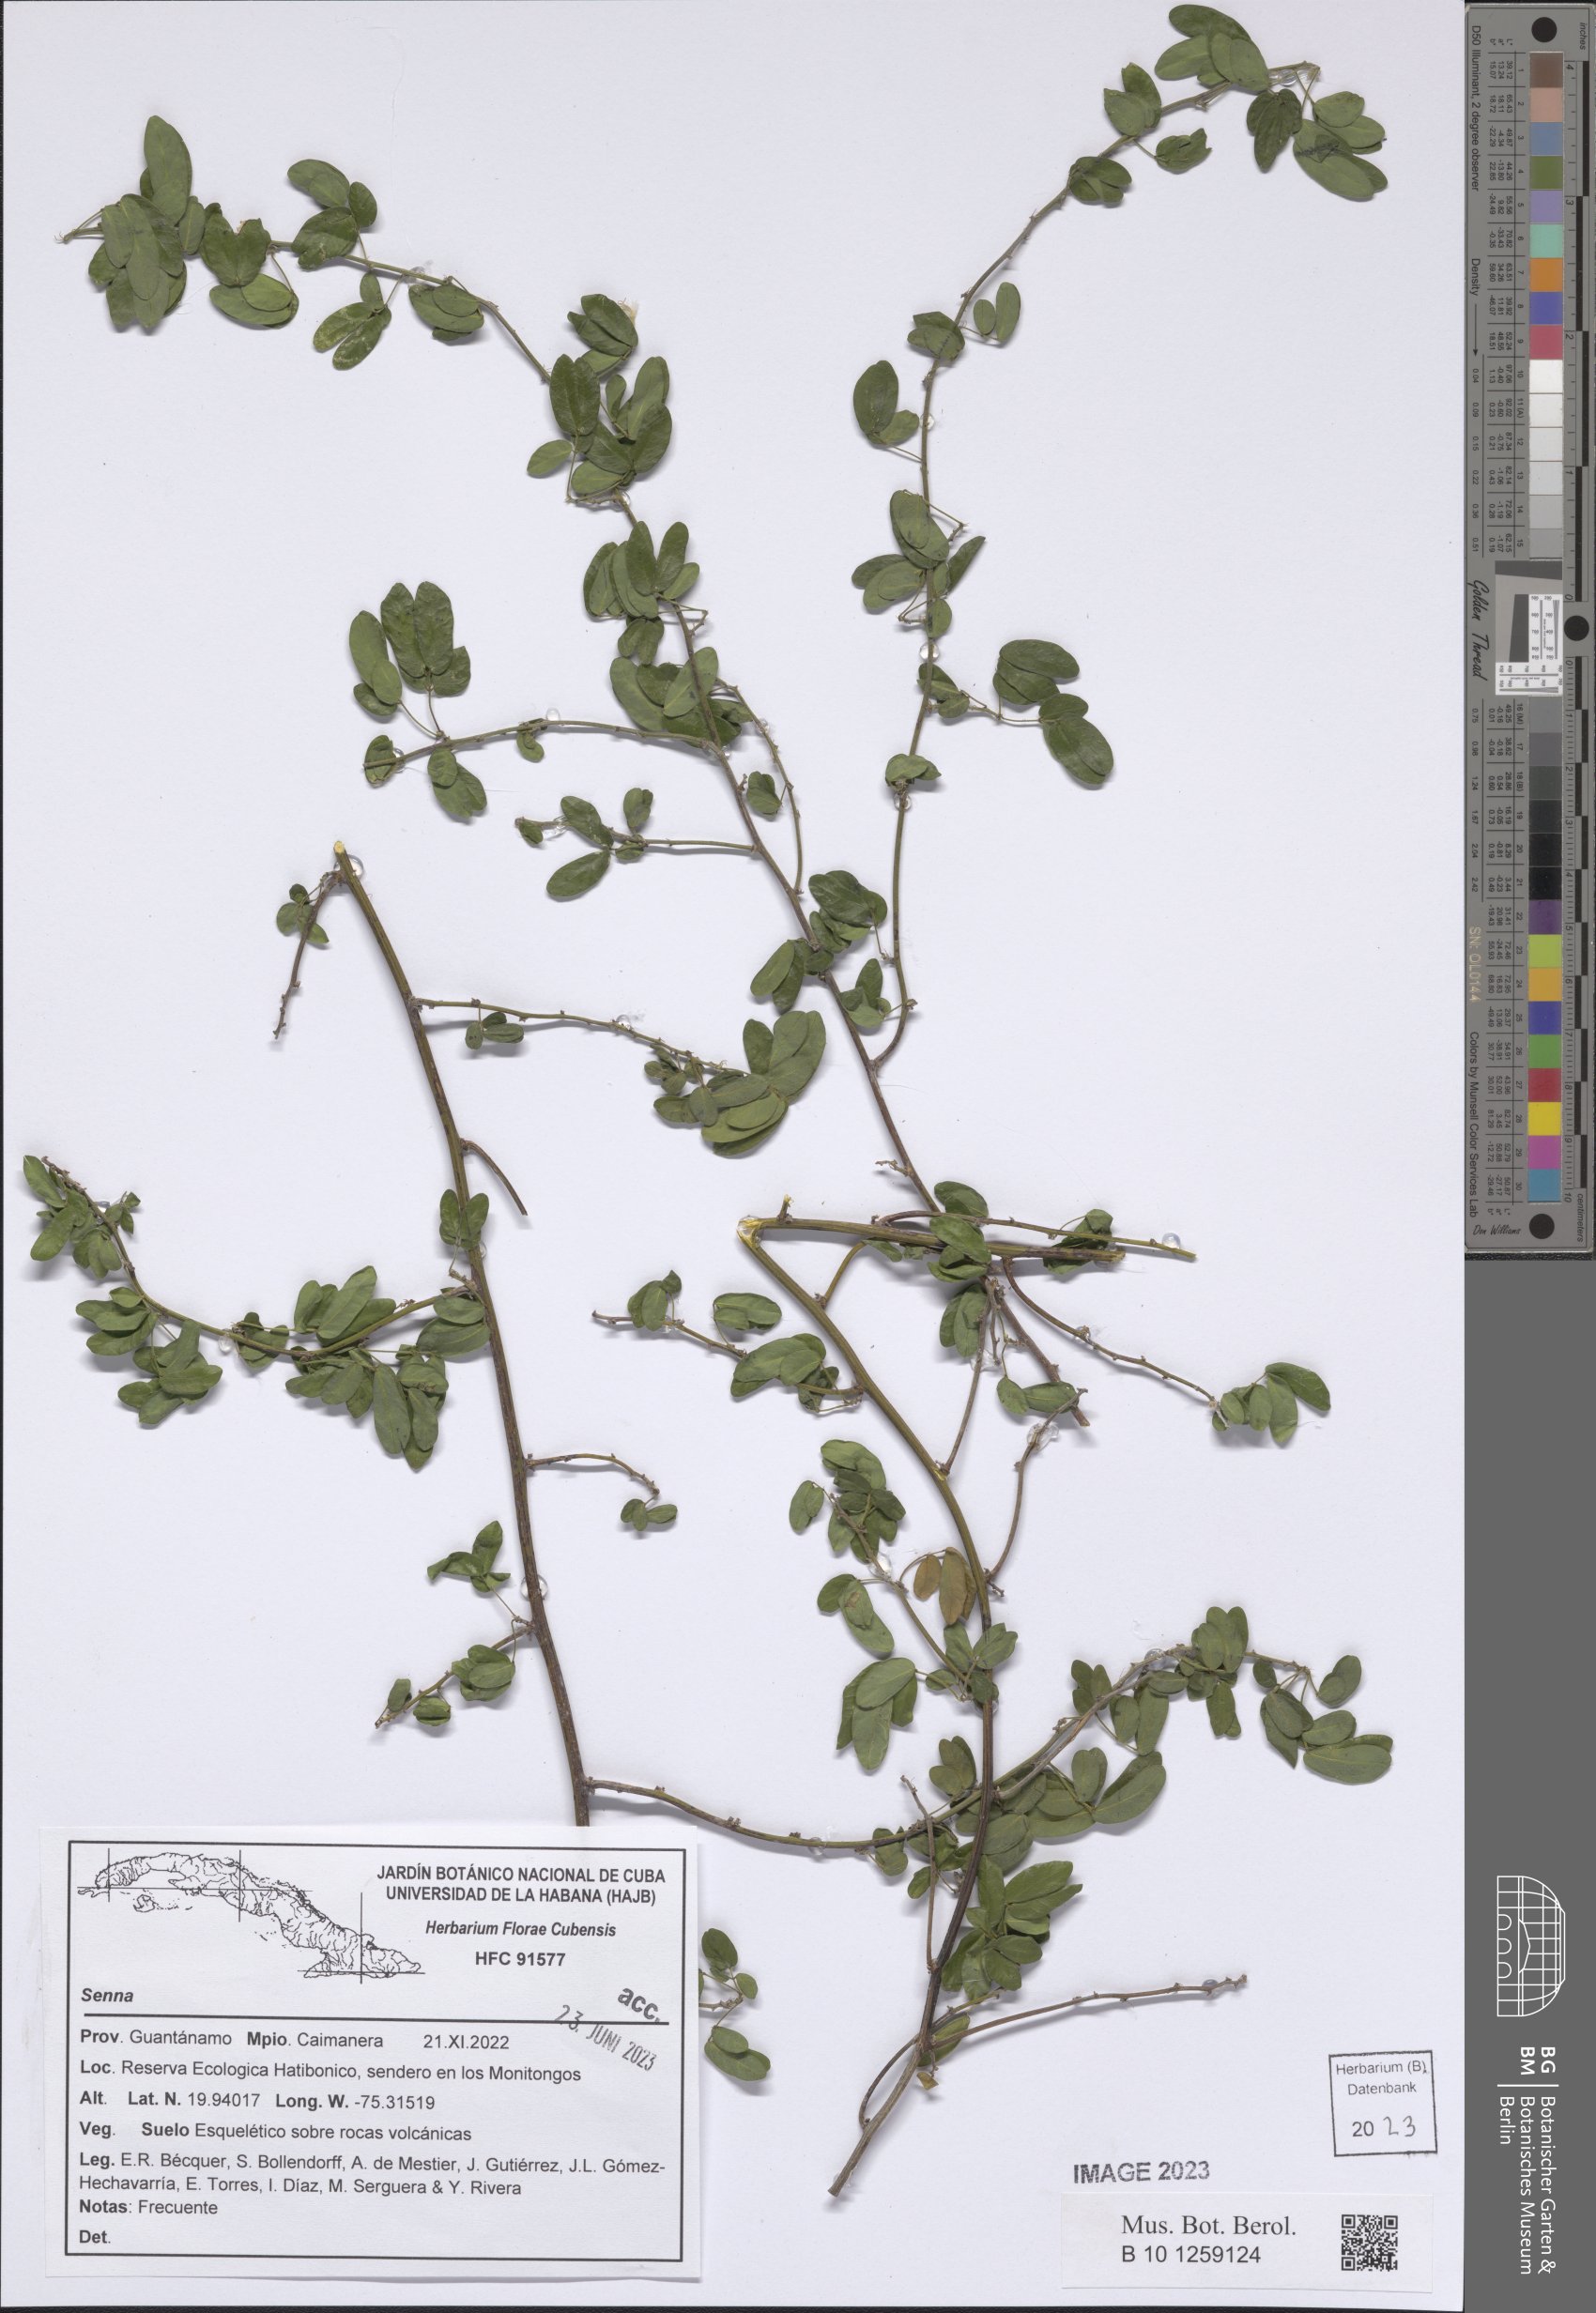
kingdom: Plantae
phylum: Tracheophyta
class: Magnoliopsida
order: Fabales
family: Fabaceae
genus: Senna
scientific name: Senna
